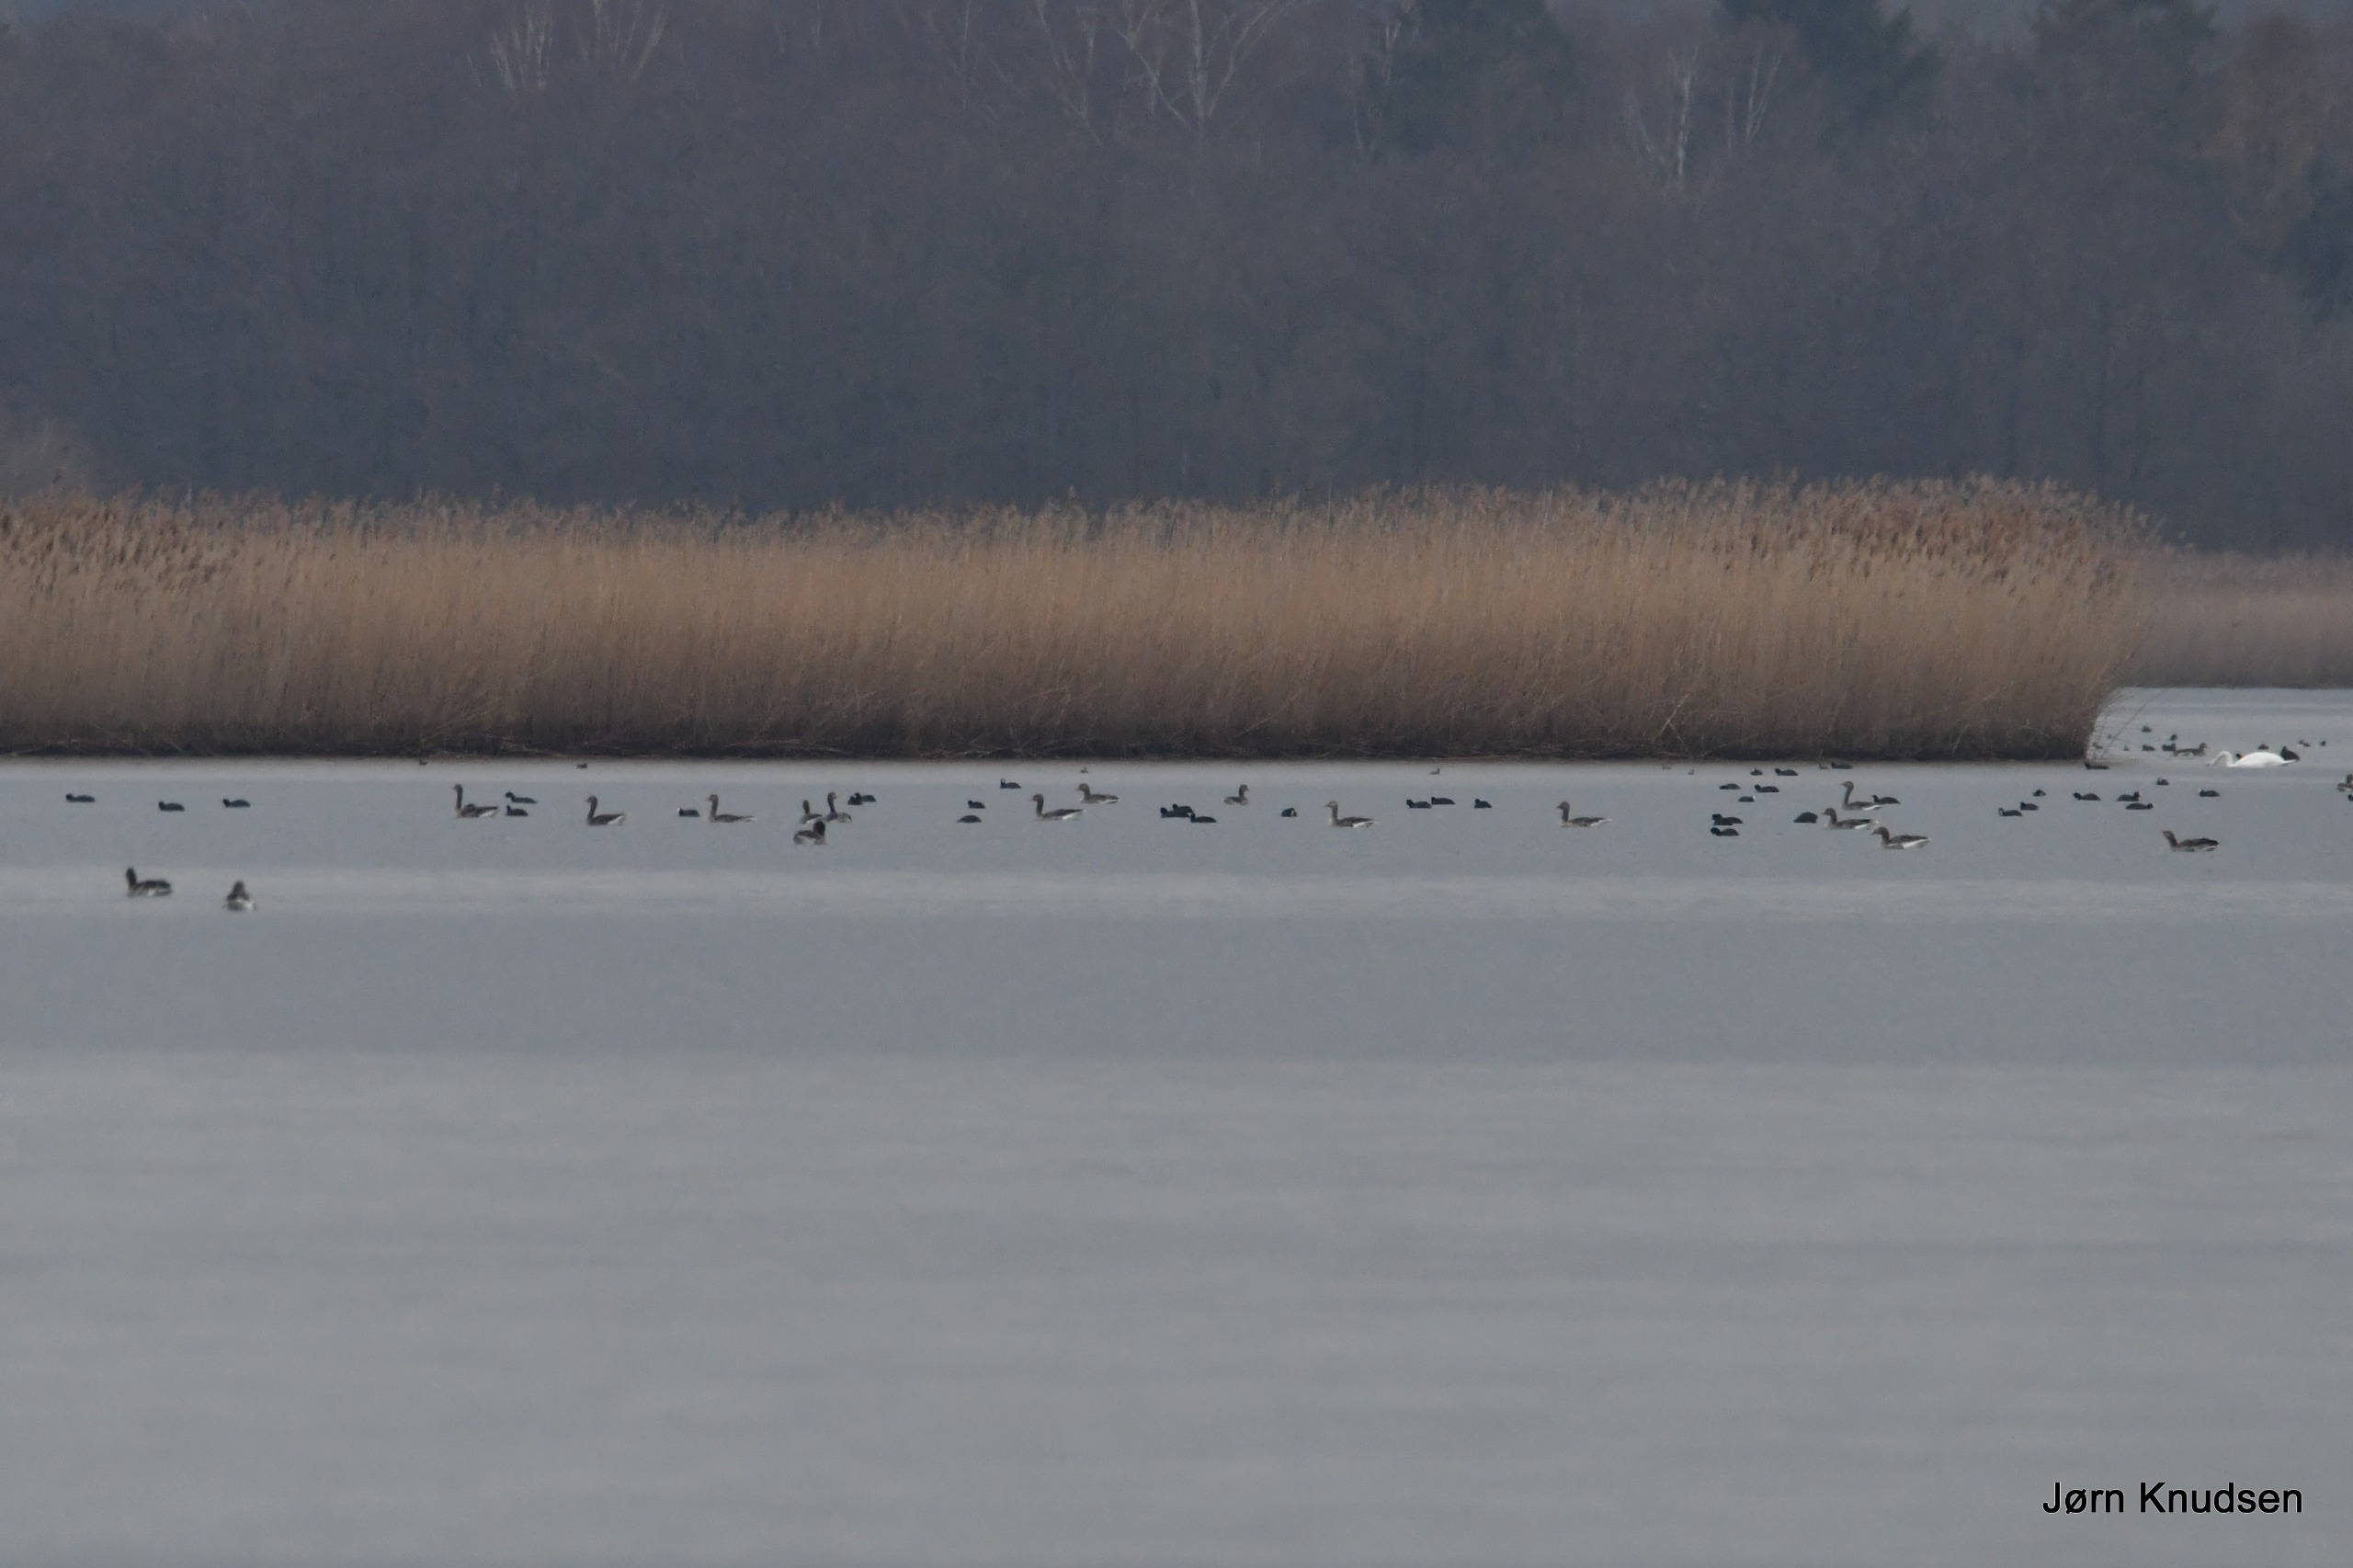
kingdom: Animalia
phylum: Chordata
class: Aves
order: Anseriformes
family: Anatidae
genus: Anser
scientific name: Anser anser
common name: Grågås
